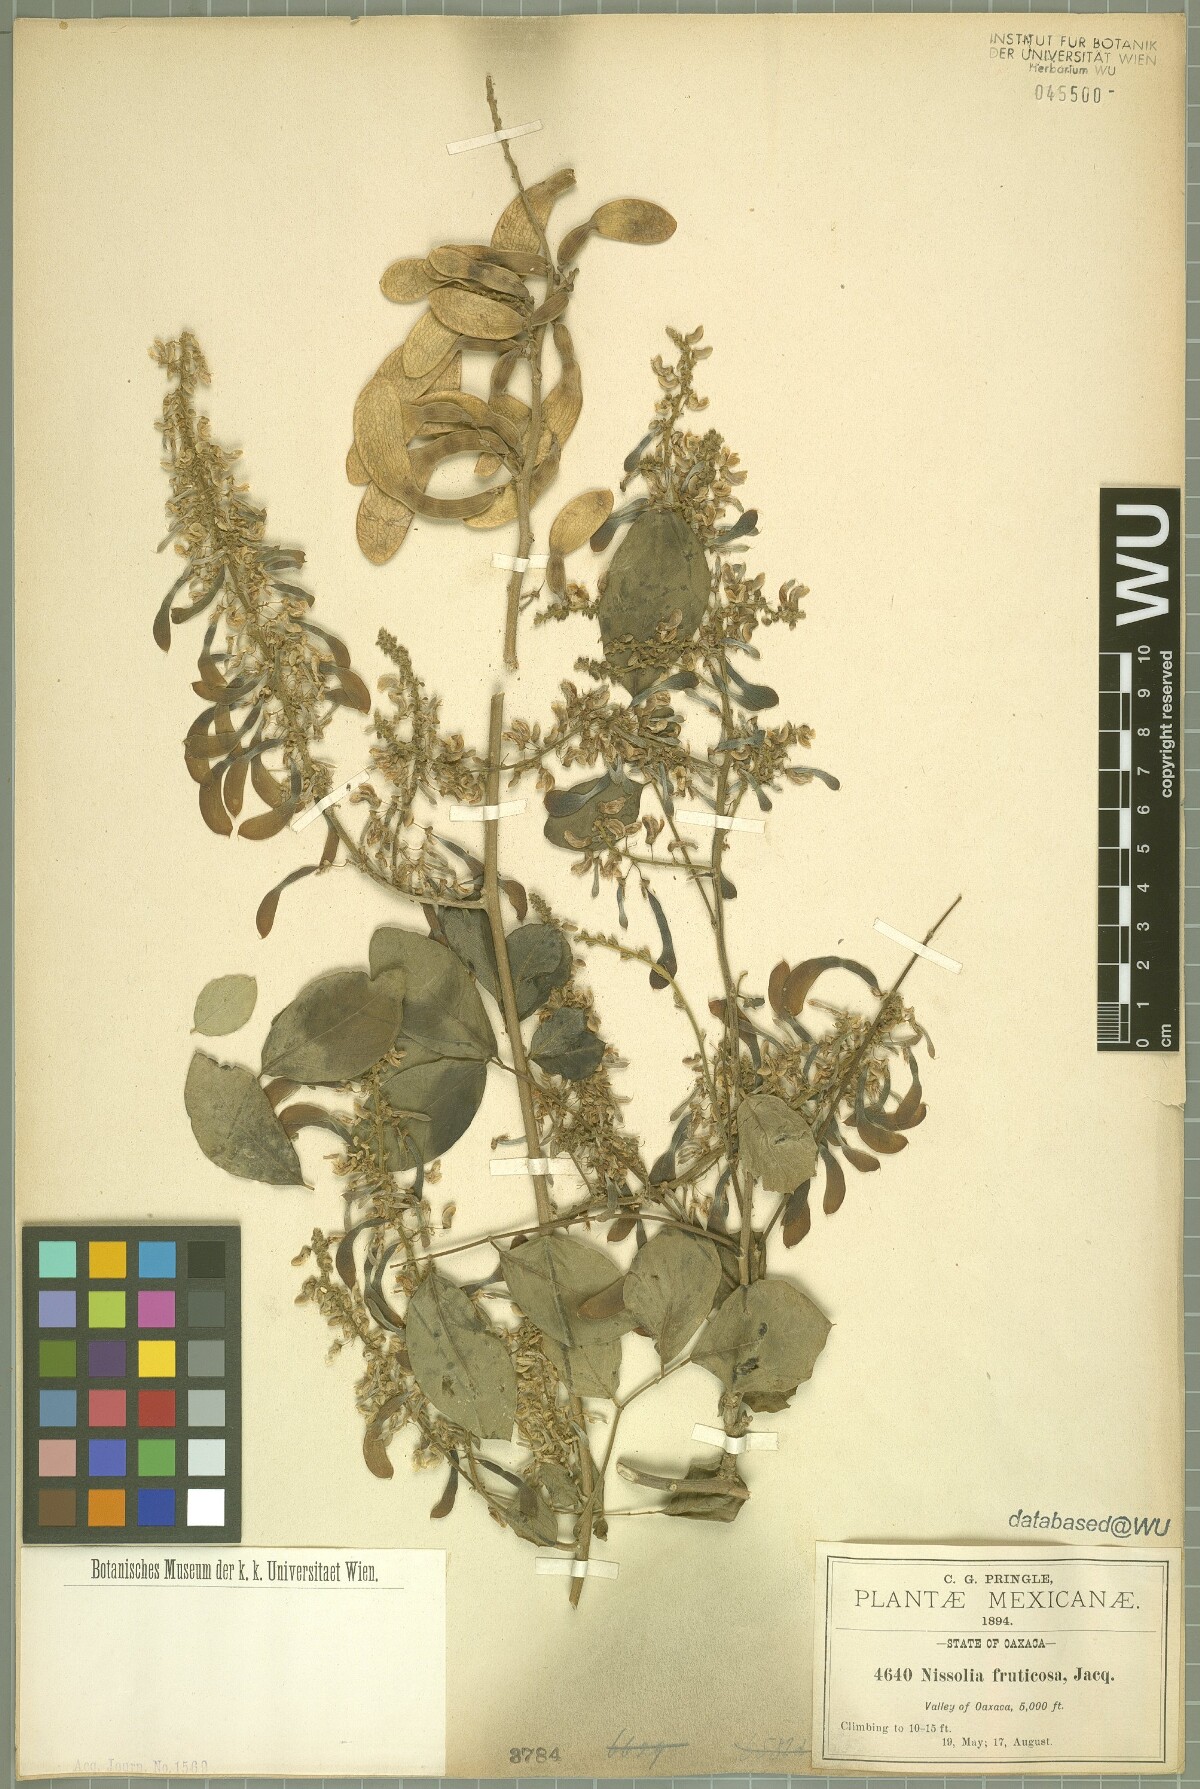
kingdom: Plantae
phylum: Tracheophyta
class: Magnoliopsida
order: Fabales
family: Fabaceae
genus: Nissolia
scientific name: Nissolia fruticosa
